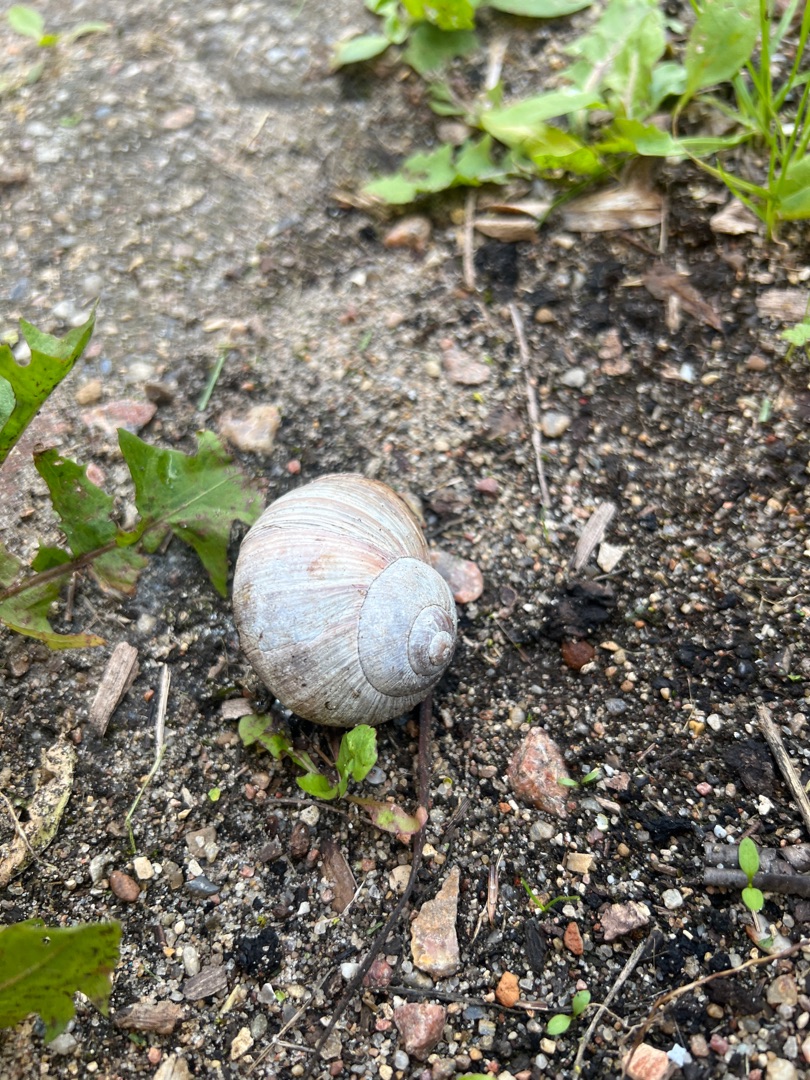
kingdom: Animalia
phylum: Mollusca
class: Gastropoda
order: Stylommatophora
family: Helicidae
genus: Helix
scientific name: Helix pomatia
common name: Vinbjergsnegl
